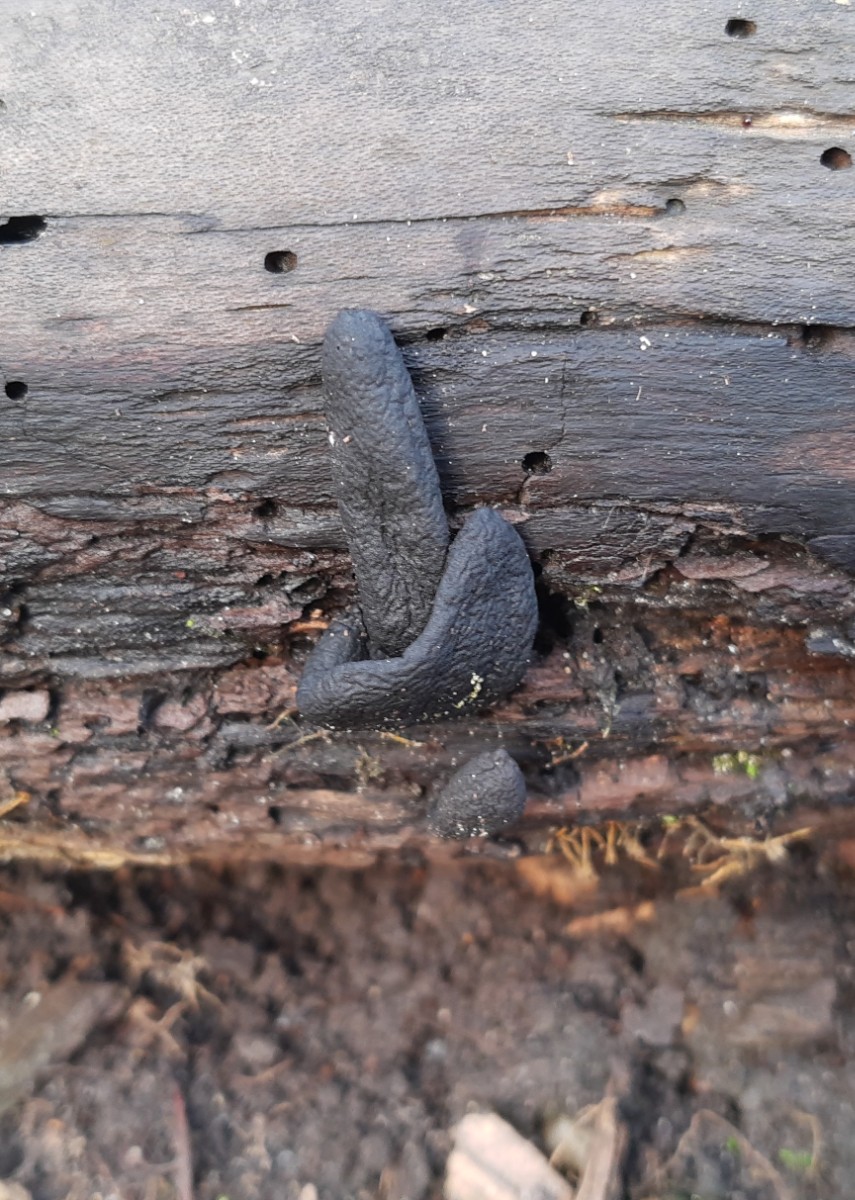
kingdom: Fungi
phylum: Ascomycota
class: Sordariomycetes
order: Xylariales
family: Xylariaceae
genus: Xylaria
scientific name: Xylaria longipes
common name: slank stødsvamp
